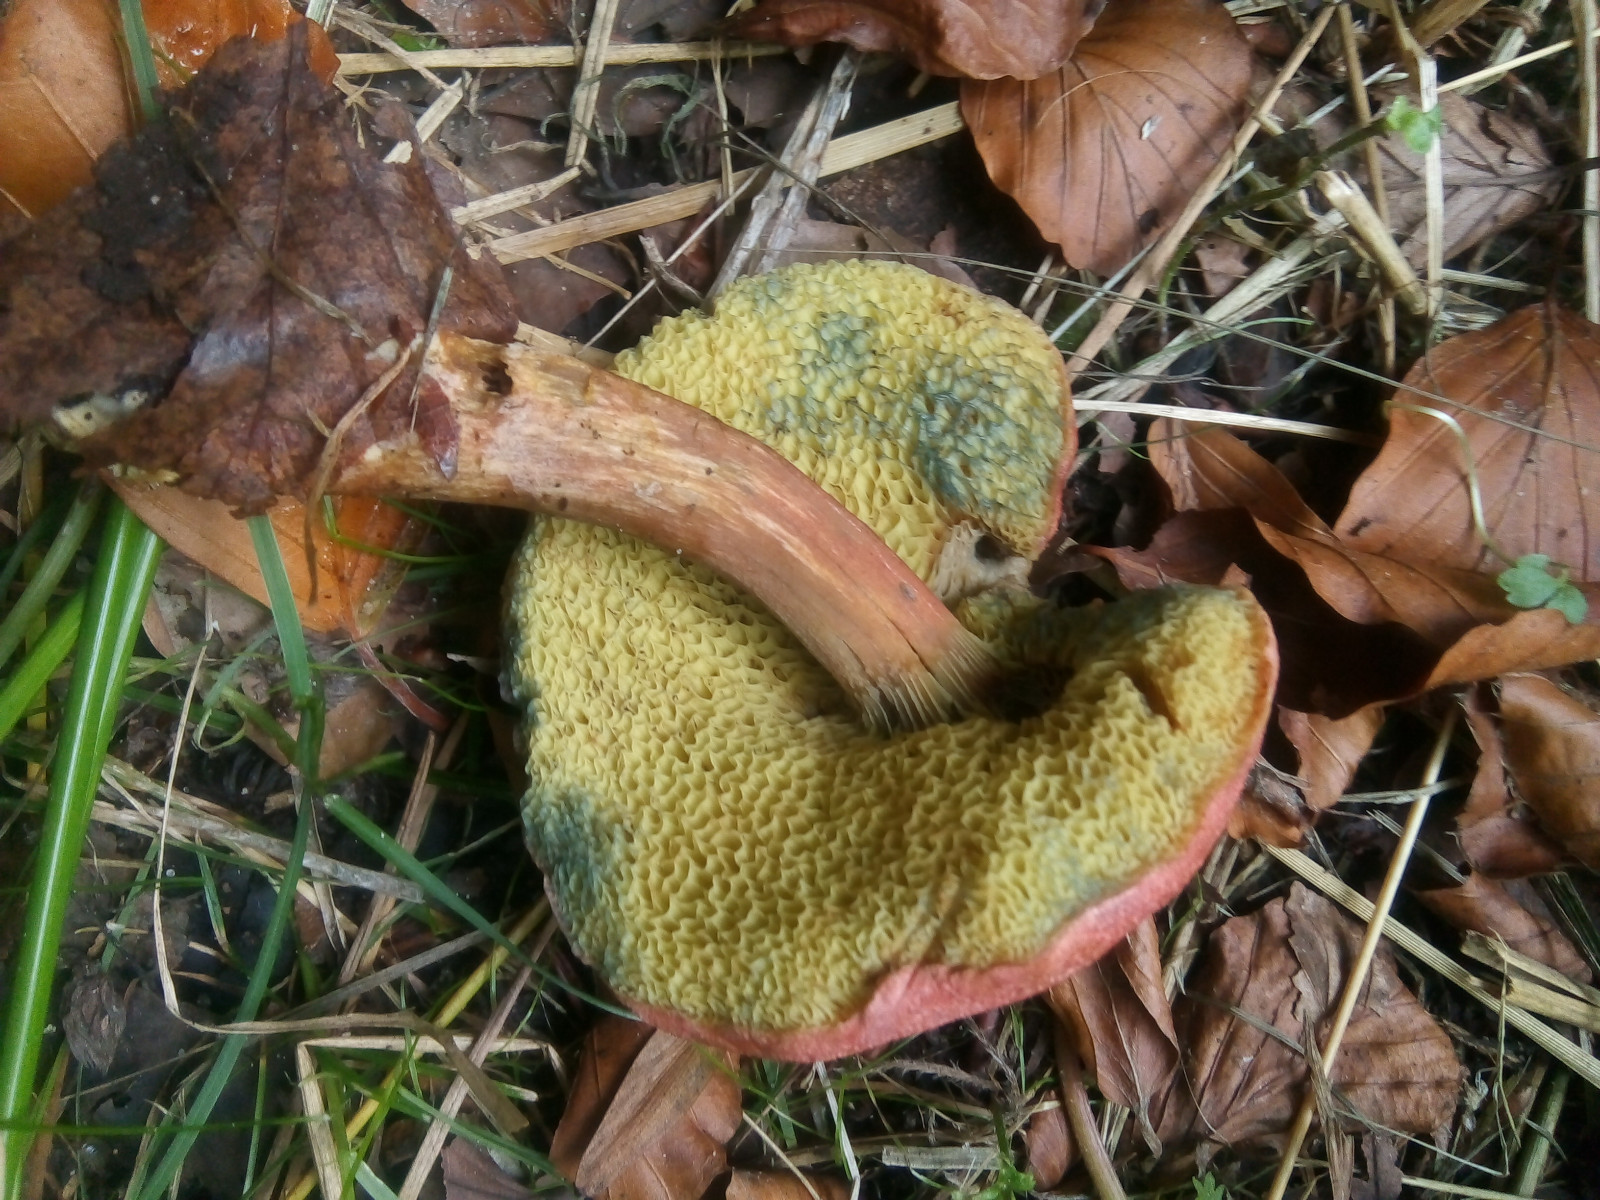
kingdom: Fungi
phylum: Basidiomycota
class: Agaricomycetes
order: Boletales
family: Boletaceae
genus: Hortiboletus
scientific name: Hortiboletus rubellus
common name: blodrød rørhat
